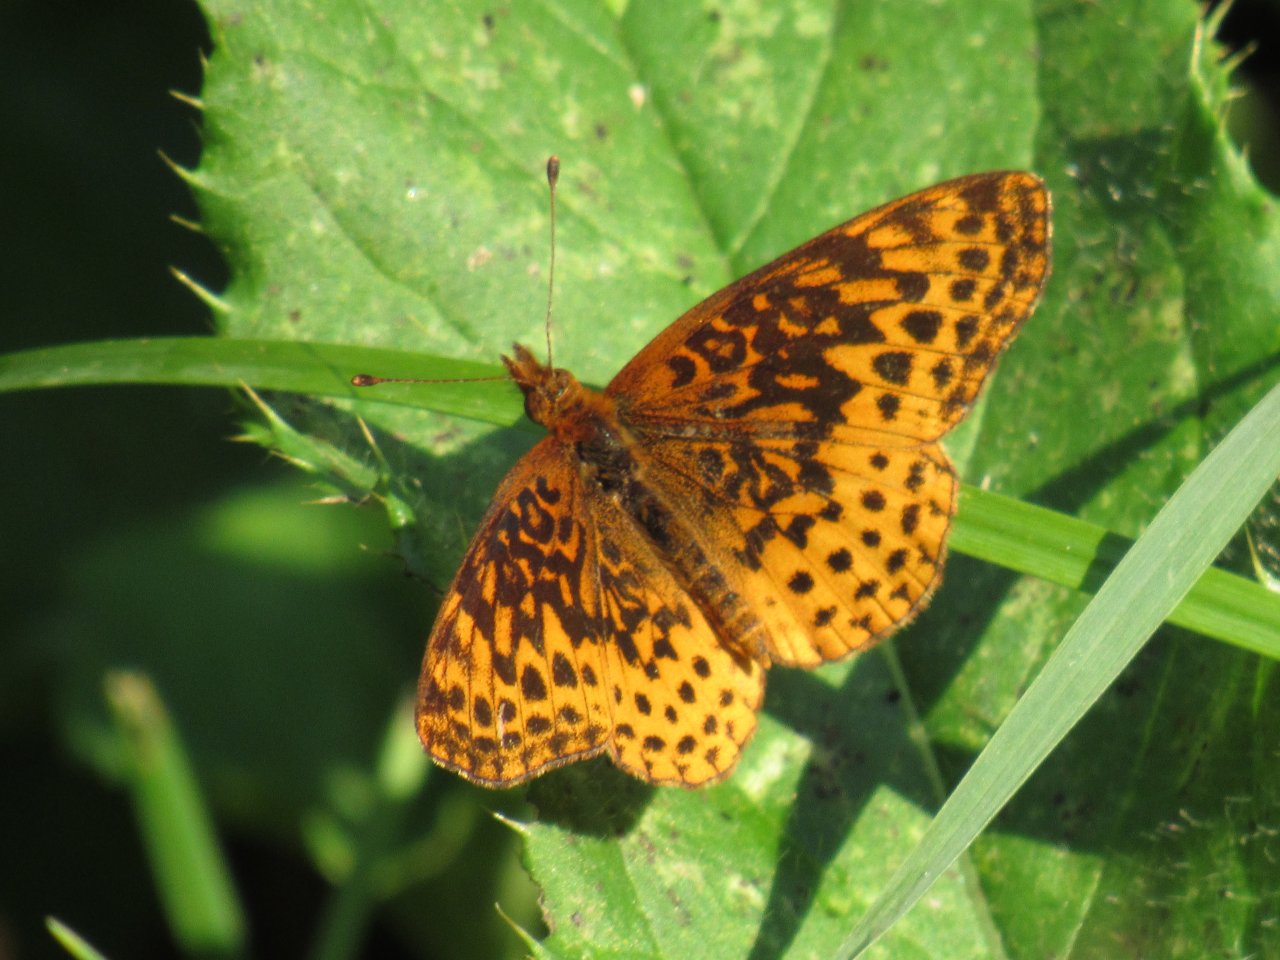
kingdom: Animalia
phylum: Arthropoda
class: Insecta
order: Lepidoptera
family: Nymphalidae
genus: Clossiana
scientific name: Clossiana toddi
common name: Meadow Fritillary
